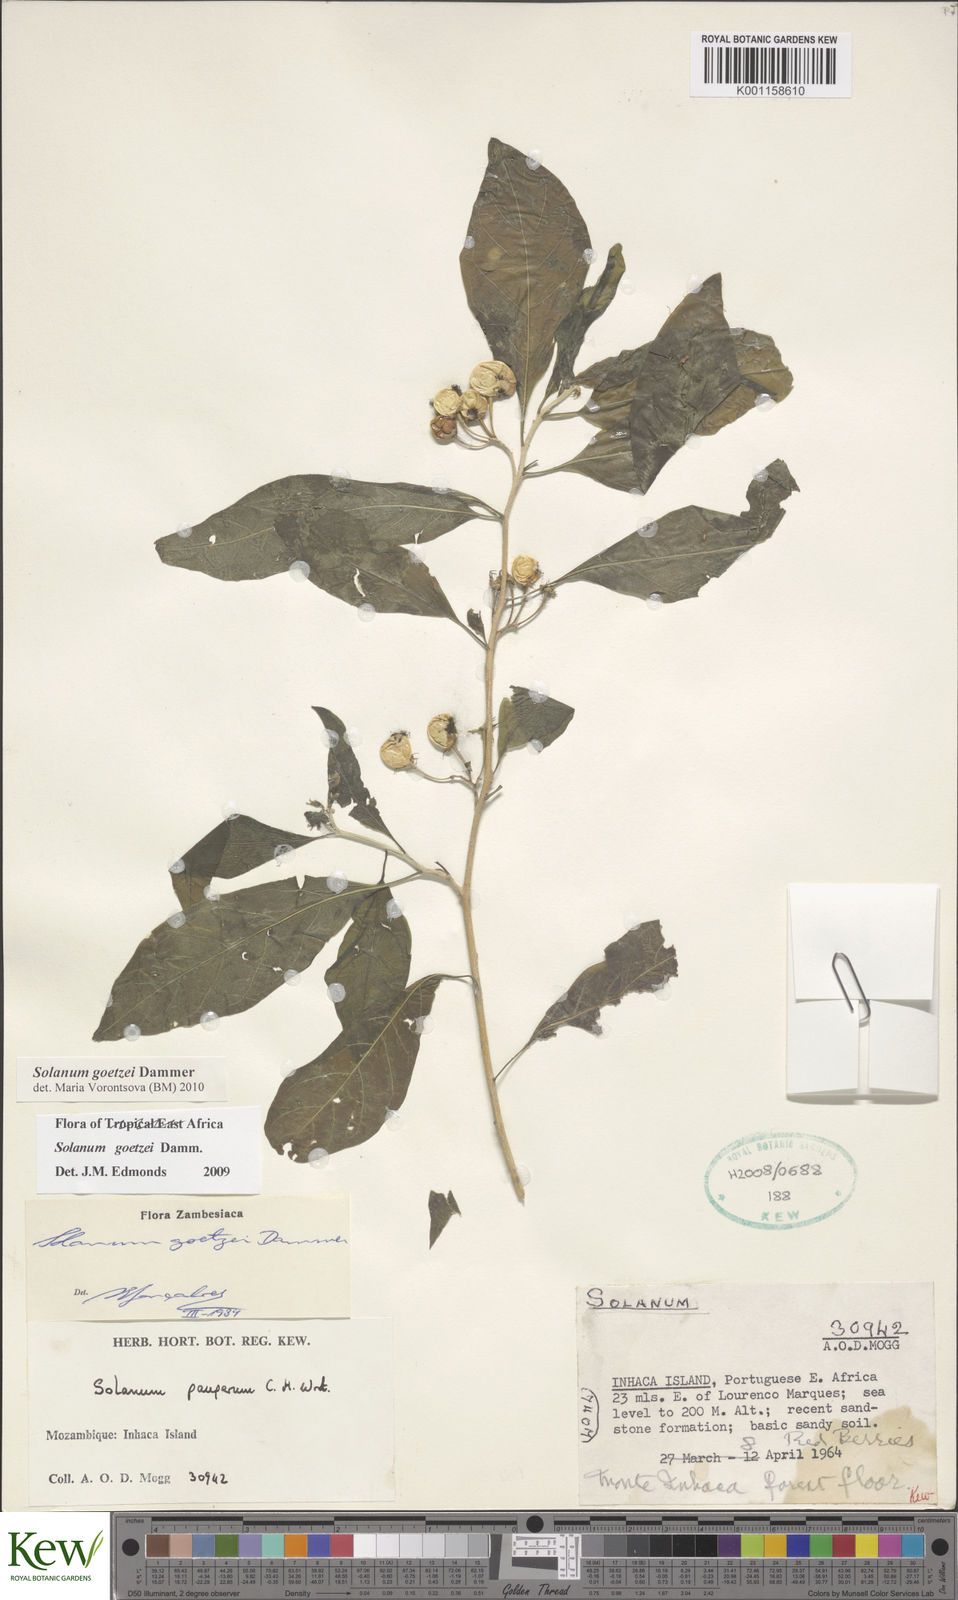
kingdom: Plantae
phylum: Tracheophyta
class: Magnoliopsida
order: Solanales
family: Solanaceae
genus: Solanum
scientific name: Solanum goetzei
